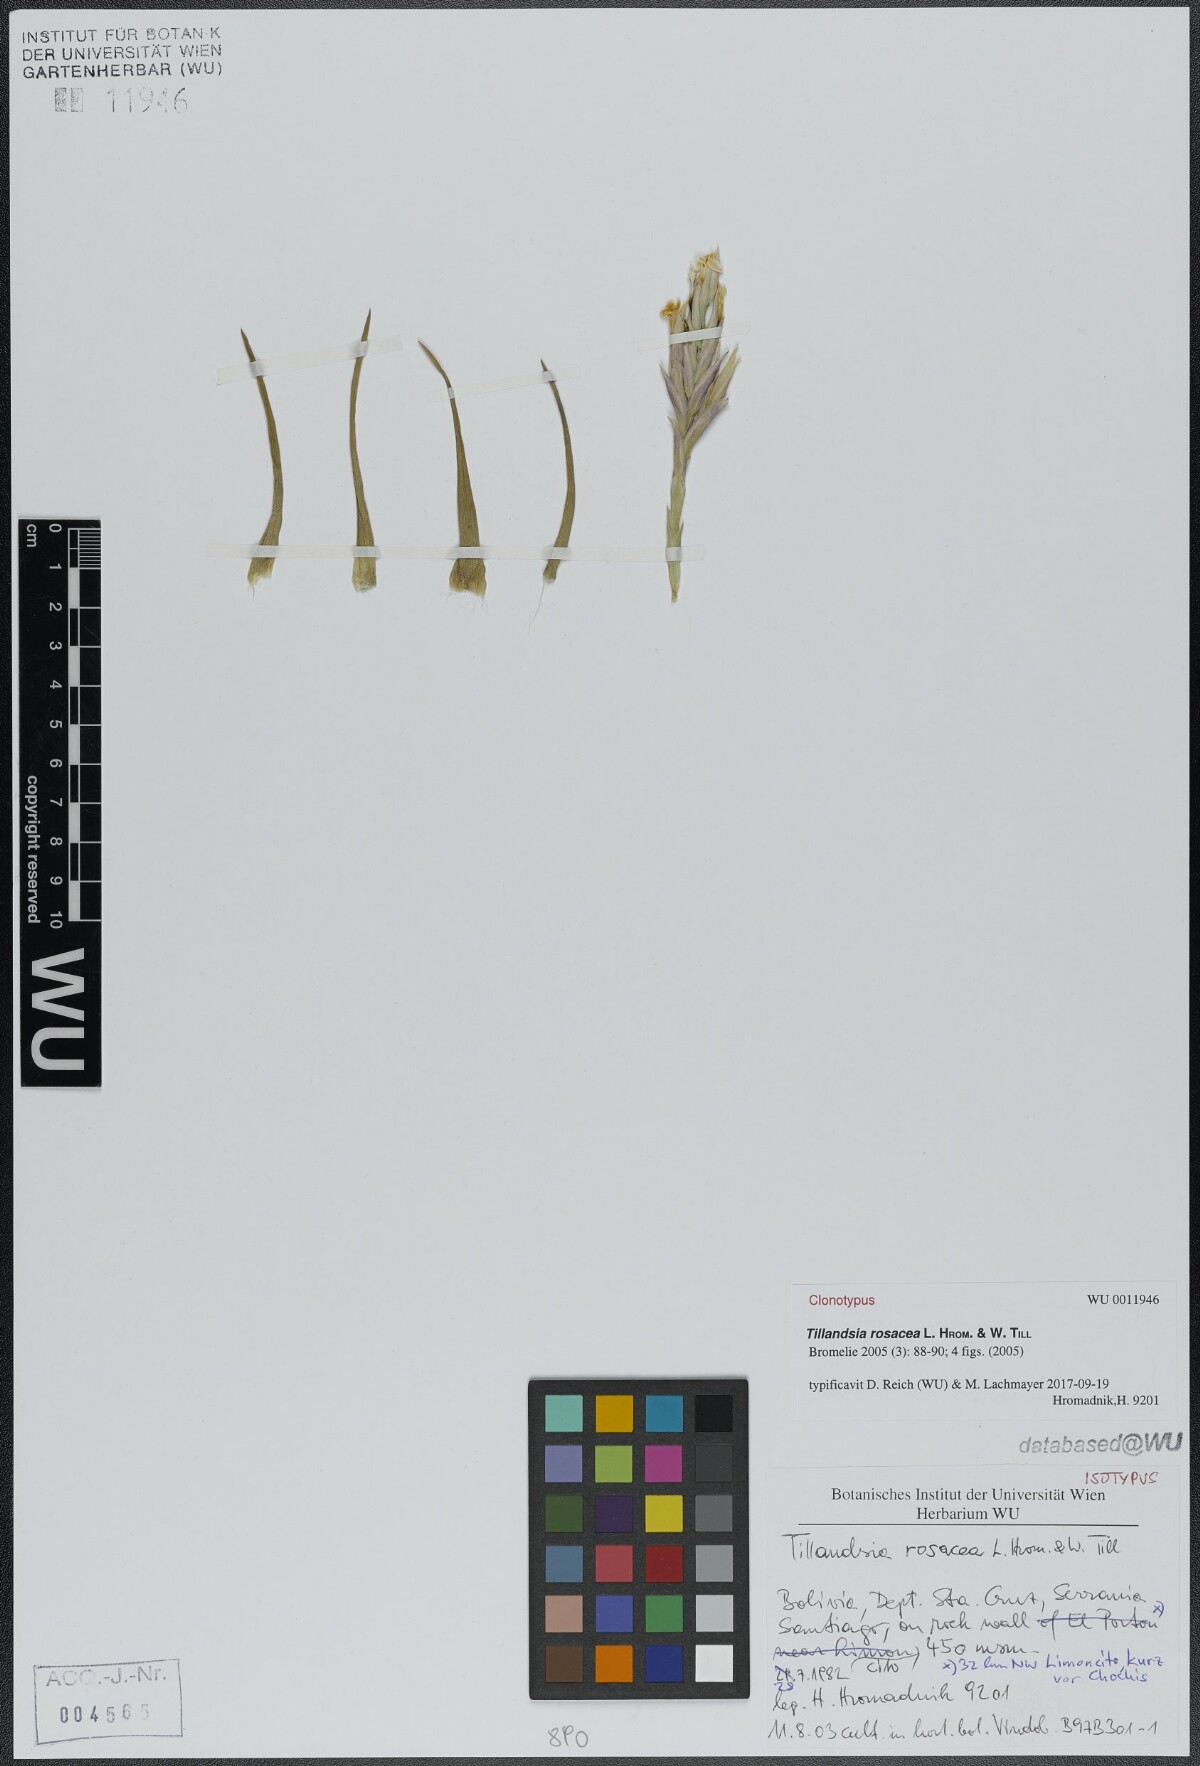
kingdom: Plantae
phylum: Tracheophyta
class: Liliopsida
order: Poales
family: Bromeliaceae
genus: Tillandsia
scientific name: Tillandsia rosacea
